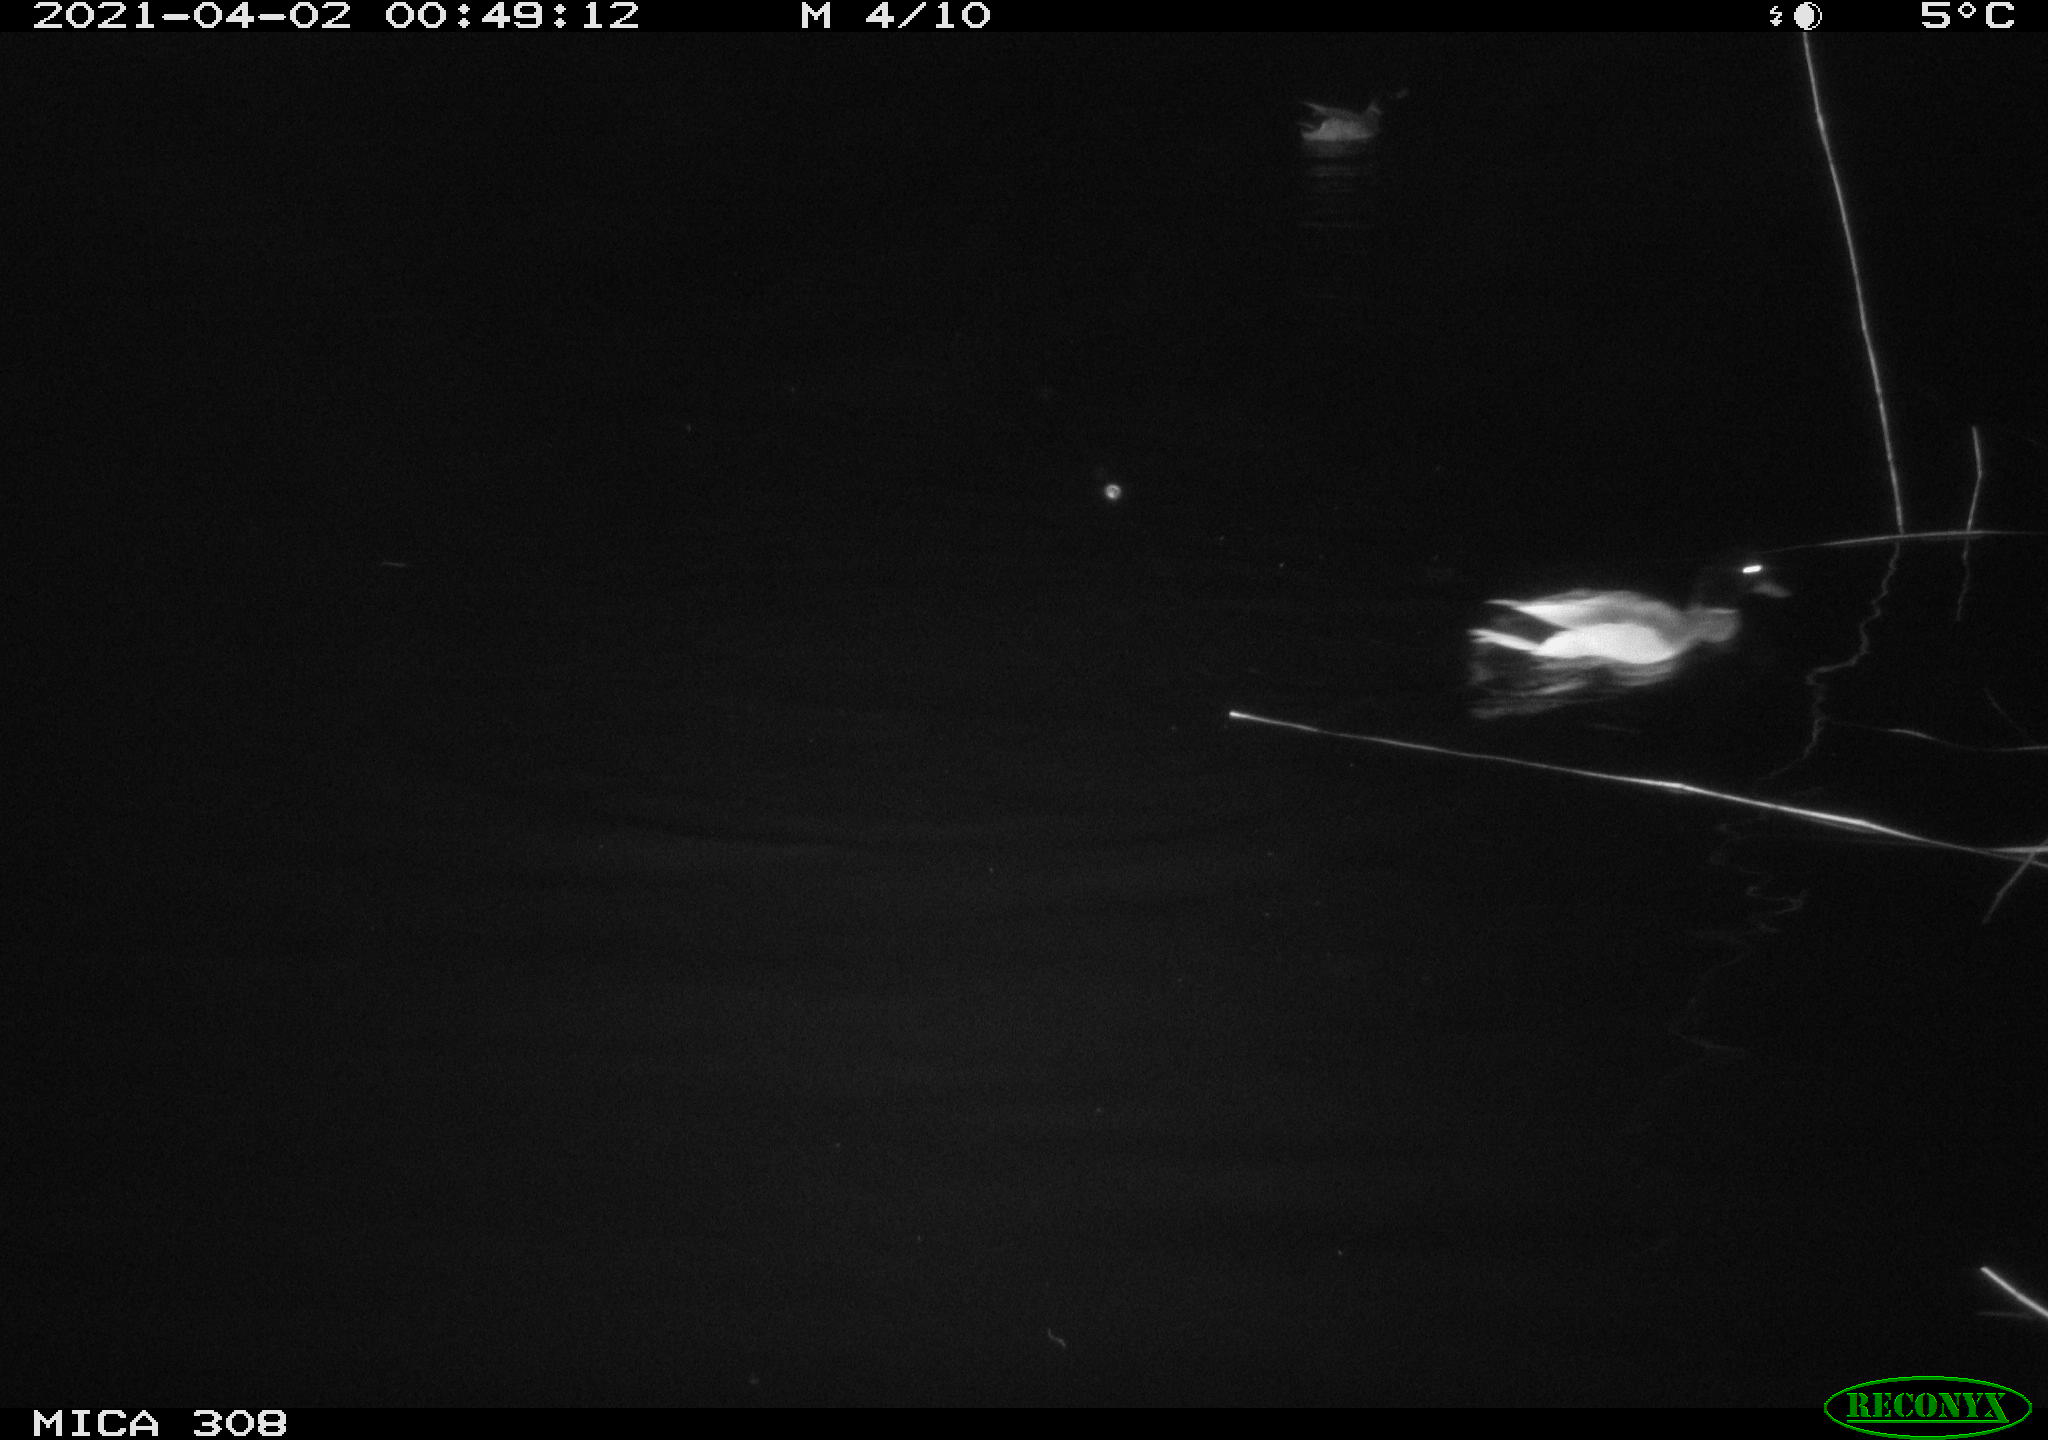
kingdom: Animalia
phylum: Chordata
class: Aves
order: Anseriformes
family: Anatidae
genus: Anas
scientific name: Anas platyrhynchos
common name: Mallard
